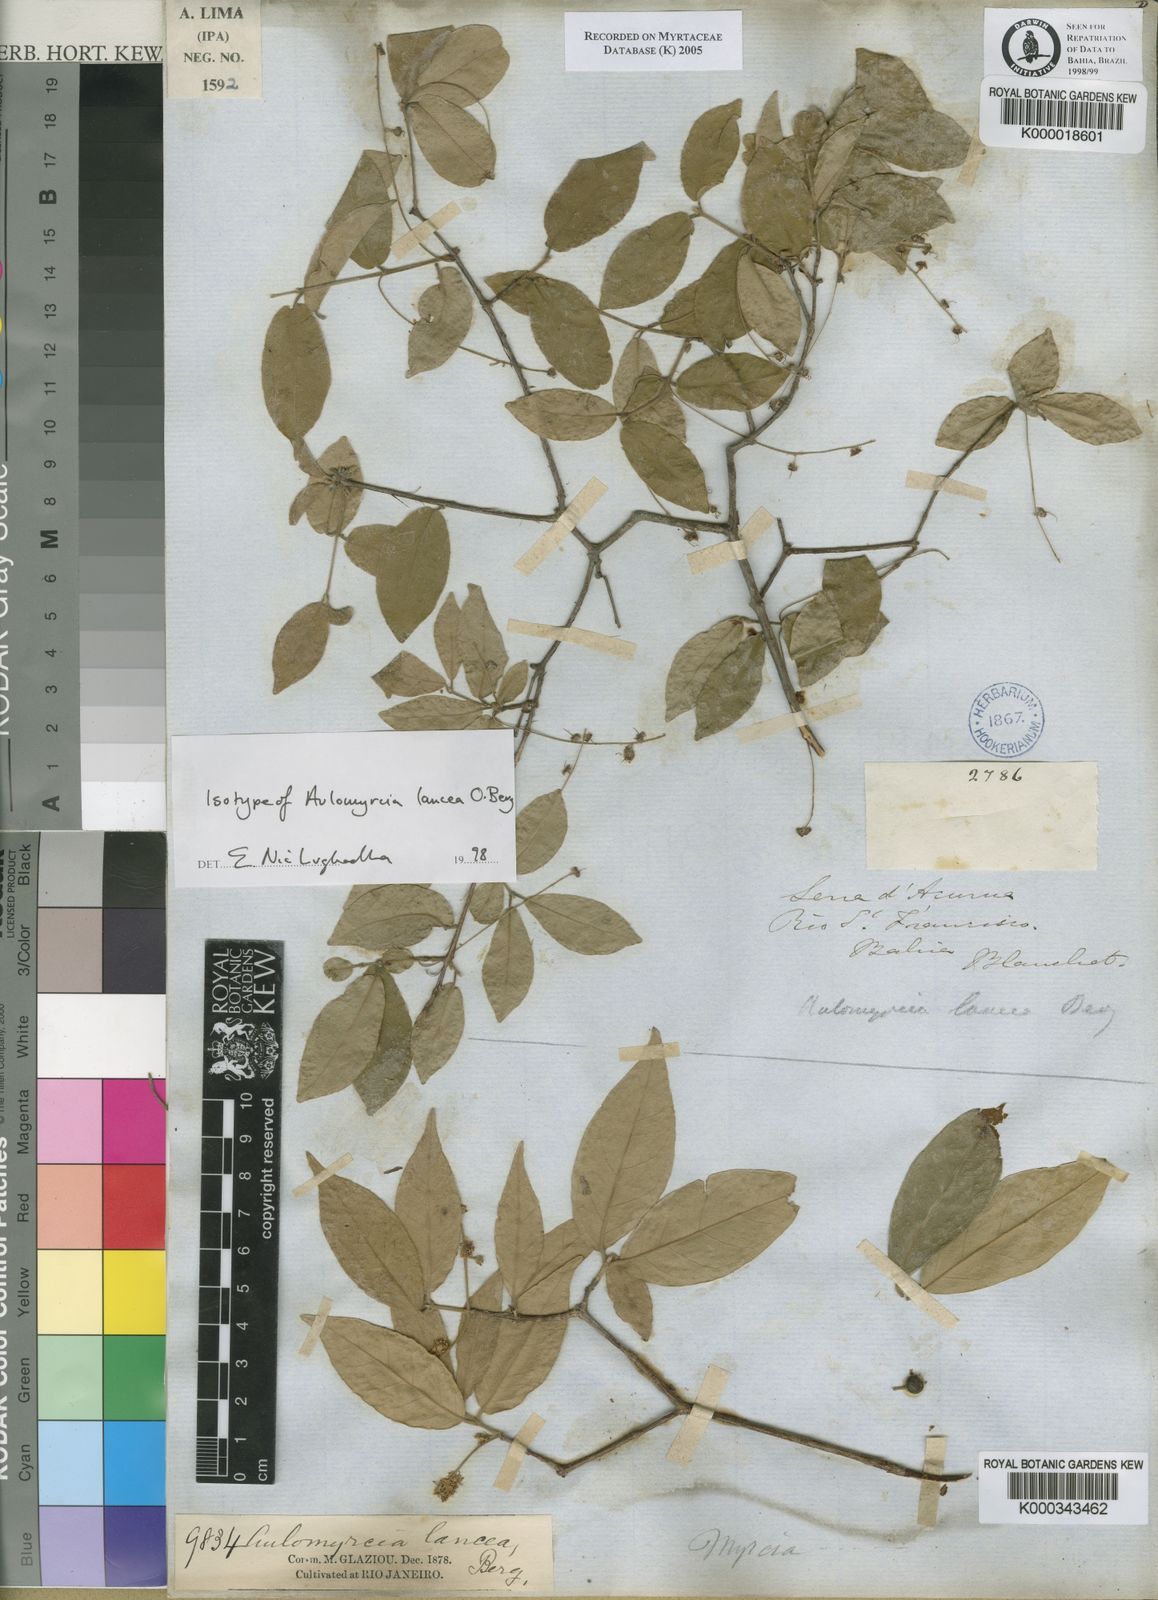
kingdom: Plantae
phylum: Tracheophyta
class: Magnoliopsida
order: Myrtales
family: Myrtaceae
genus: Myrcia
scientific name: Myrcia tomentosa
